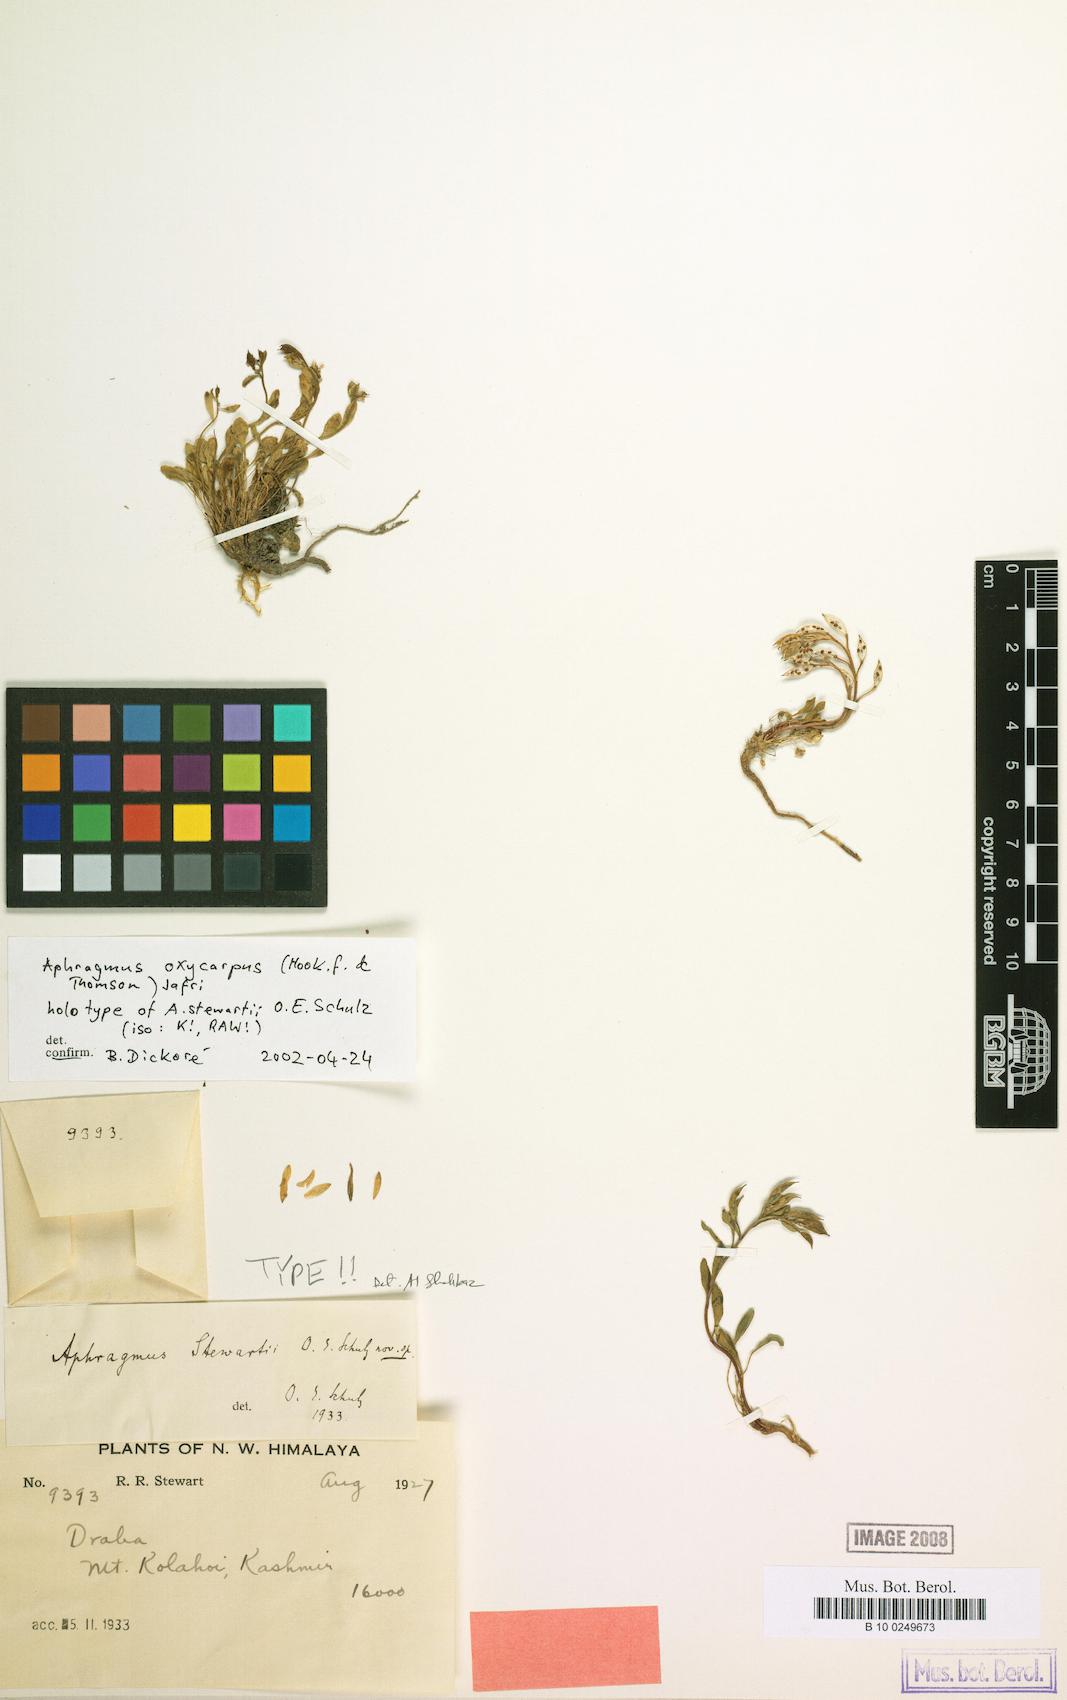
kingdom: Plantae
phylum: Tracheophyta
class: Magnoliopsida
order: Brassicales
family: Brassicaceae
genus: Aphragmus
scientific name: Aphragmus oxycarpus
